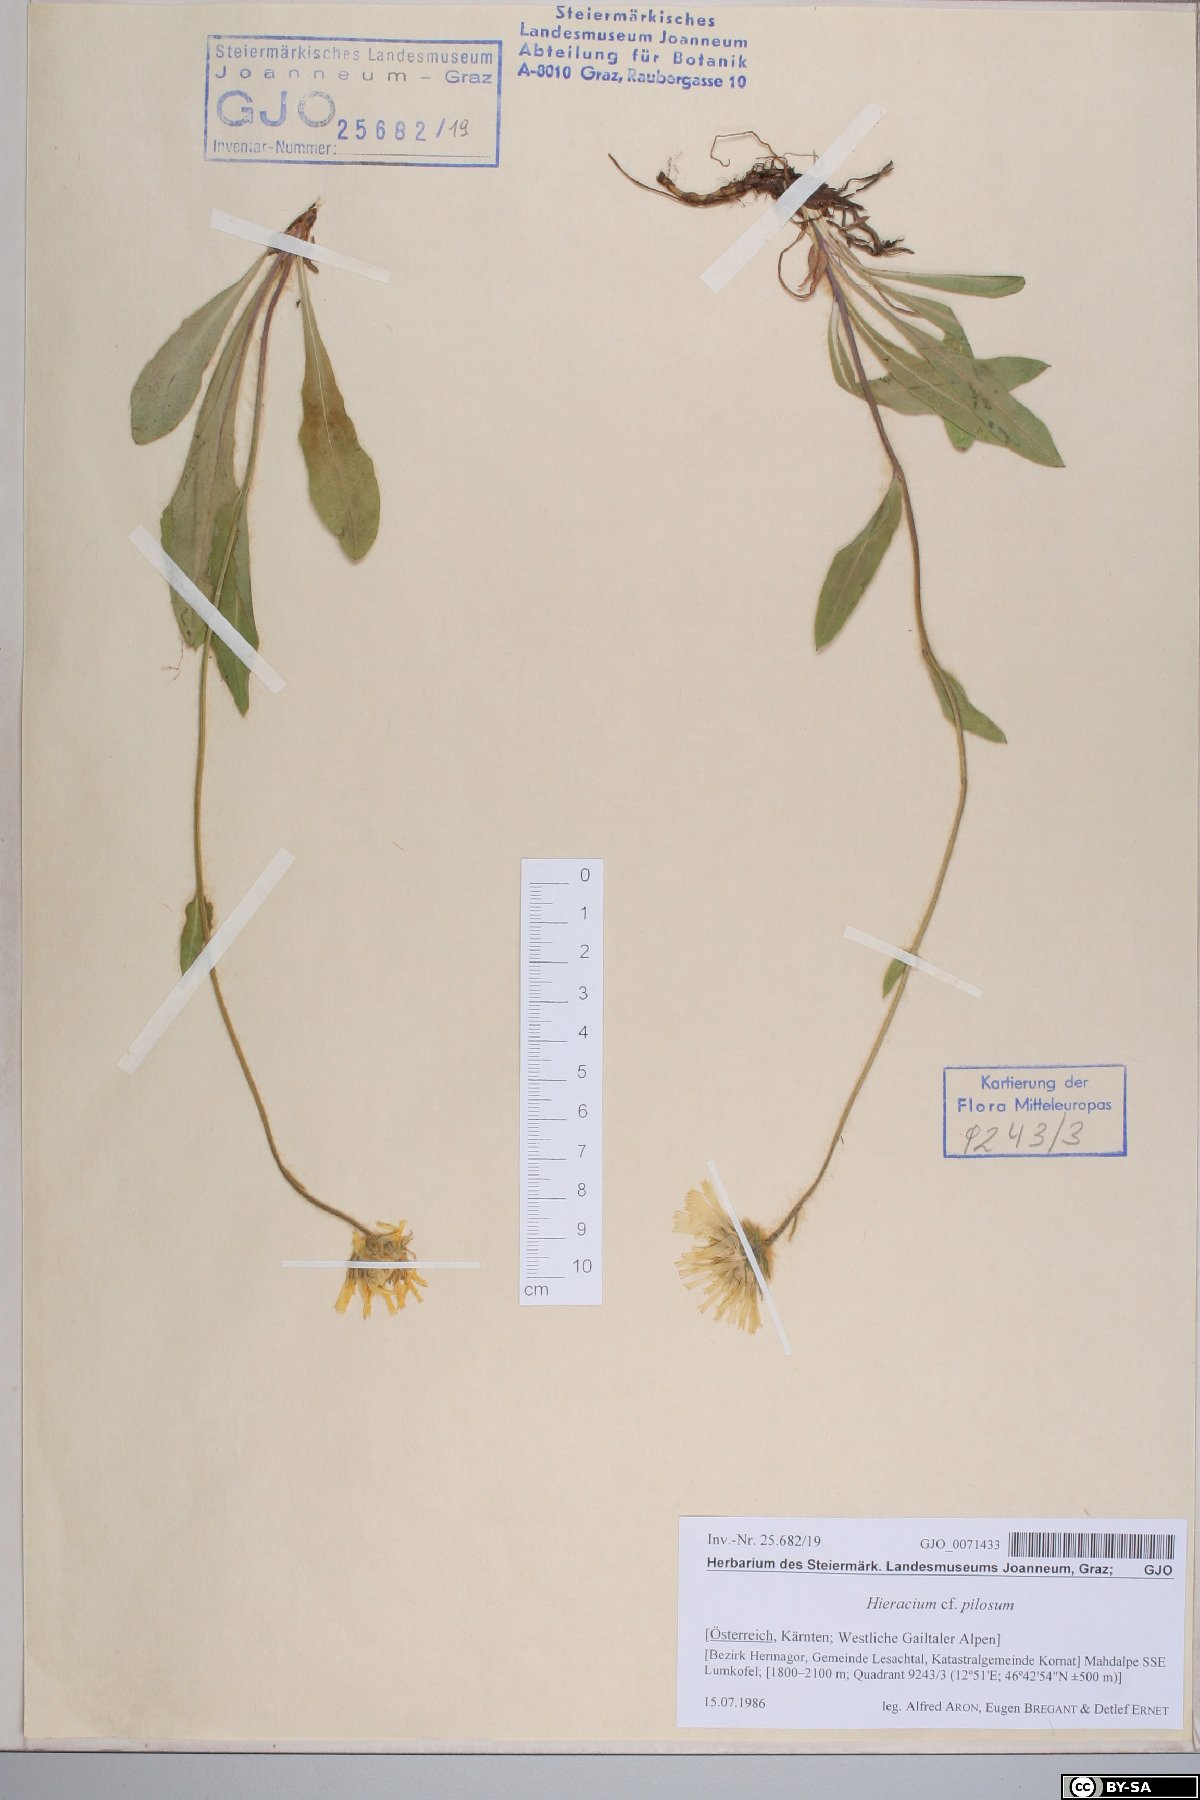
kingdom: Plantae
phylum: Tracheophyta
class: Magnoliopsida
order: Asterales
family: Asteraceae
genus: Hieracium
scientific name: Hieracium pilosum
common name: Fimbriate-pitted hawkweed
